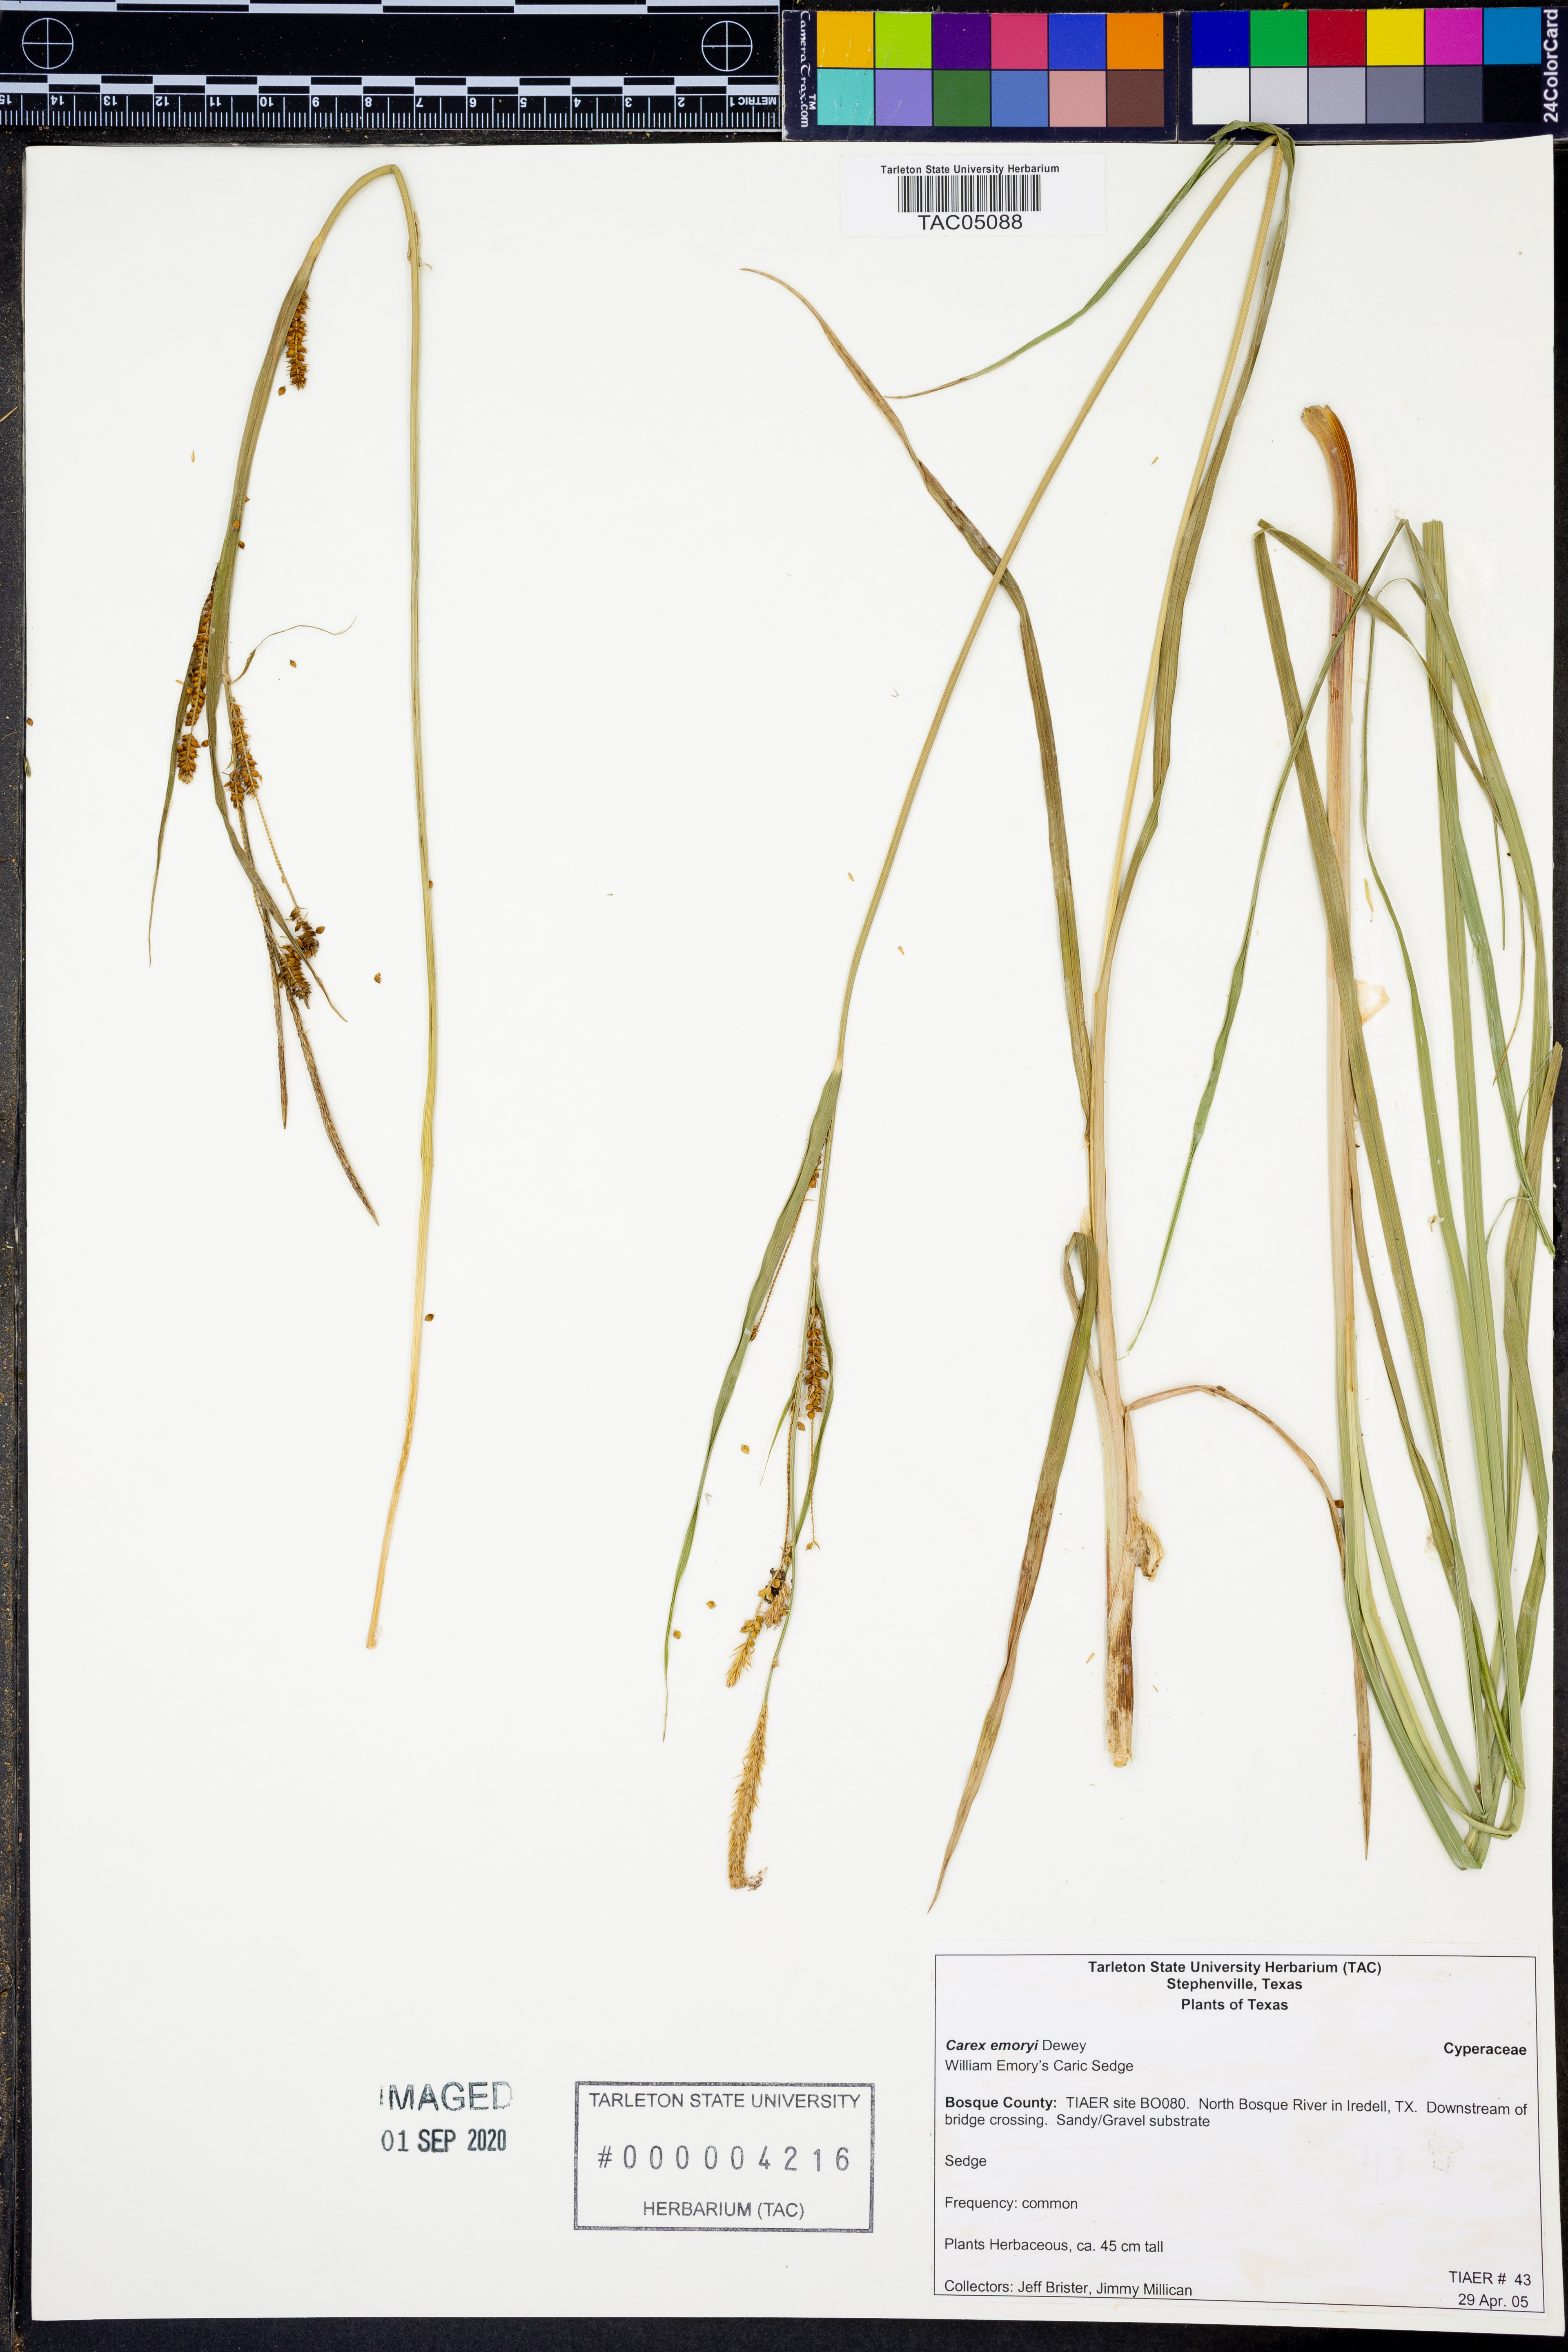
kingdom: Plantae
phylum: Tracheophyta
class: Liliopsida
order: Poales
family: Cyperaceae
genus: Carex
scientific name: Carex emoryi
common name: Emory's sedge
